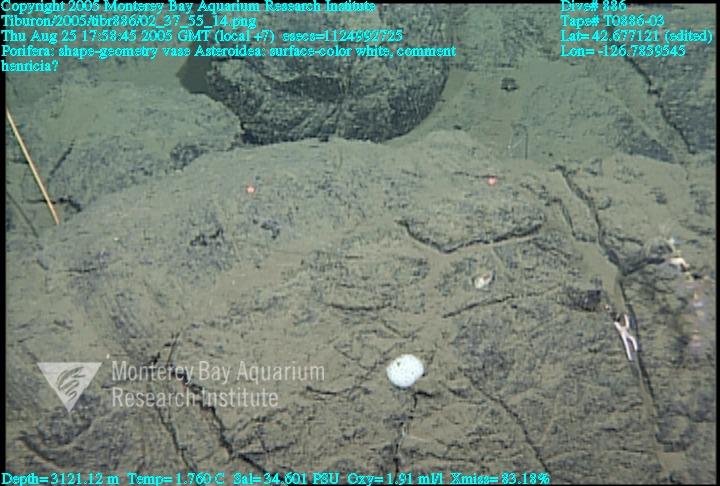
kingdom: Animalia
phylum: Porifera
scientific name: Porifera
